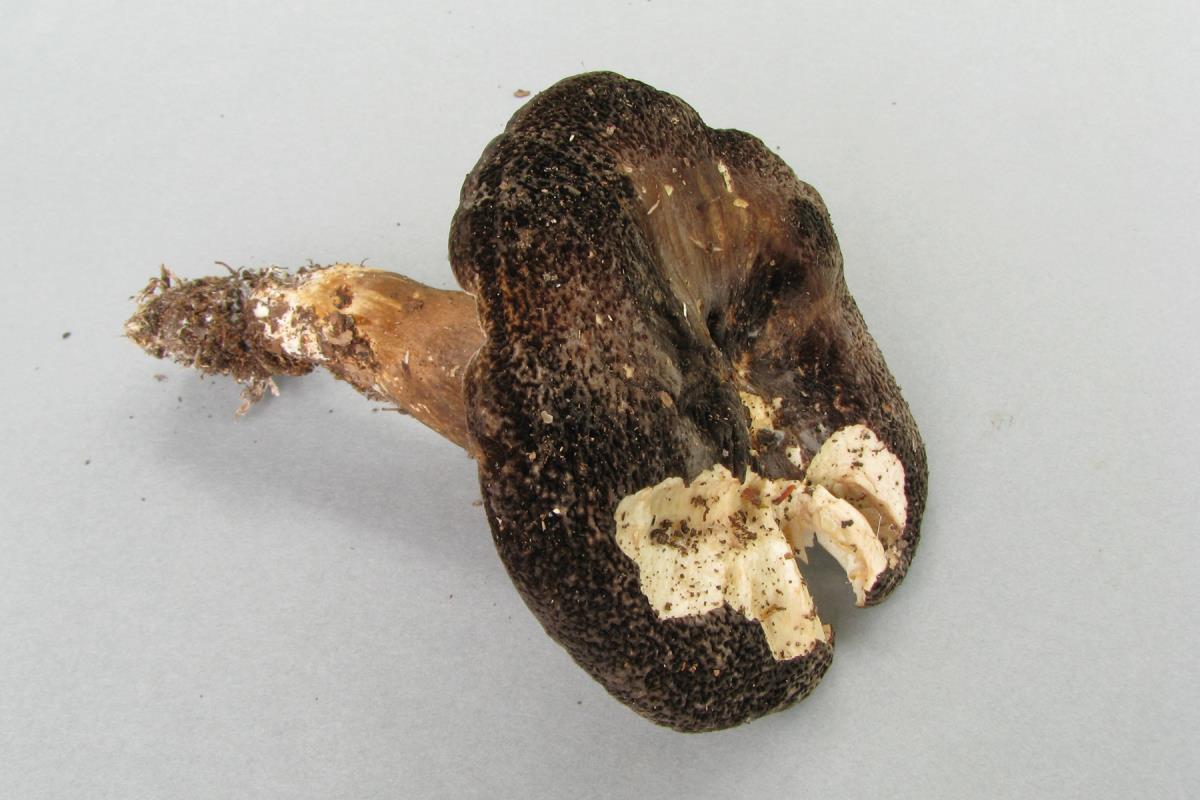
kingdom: Fungi
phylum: Basidiomycota
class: Agaricomycetes
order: Russulales
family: Russulaceae
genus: Lactifluus
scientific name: Lactifluus sepiaceus
